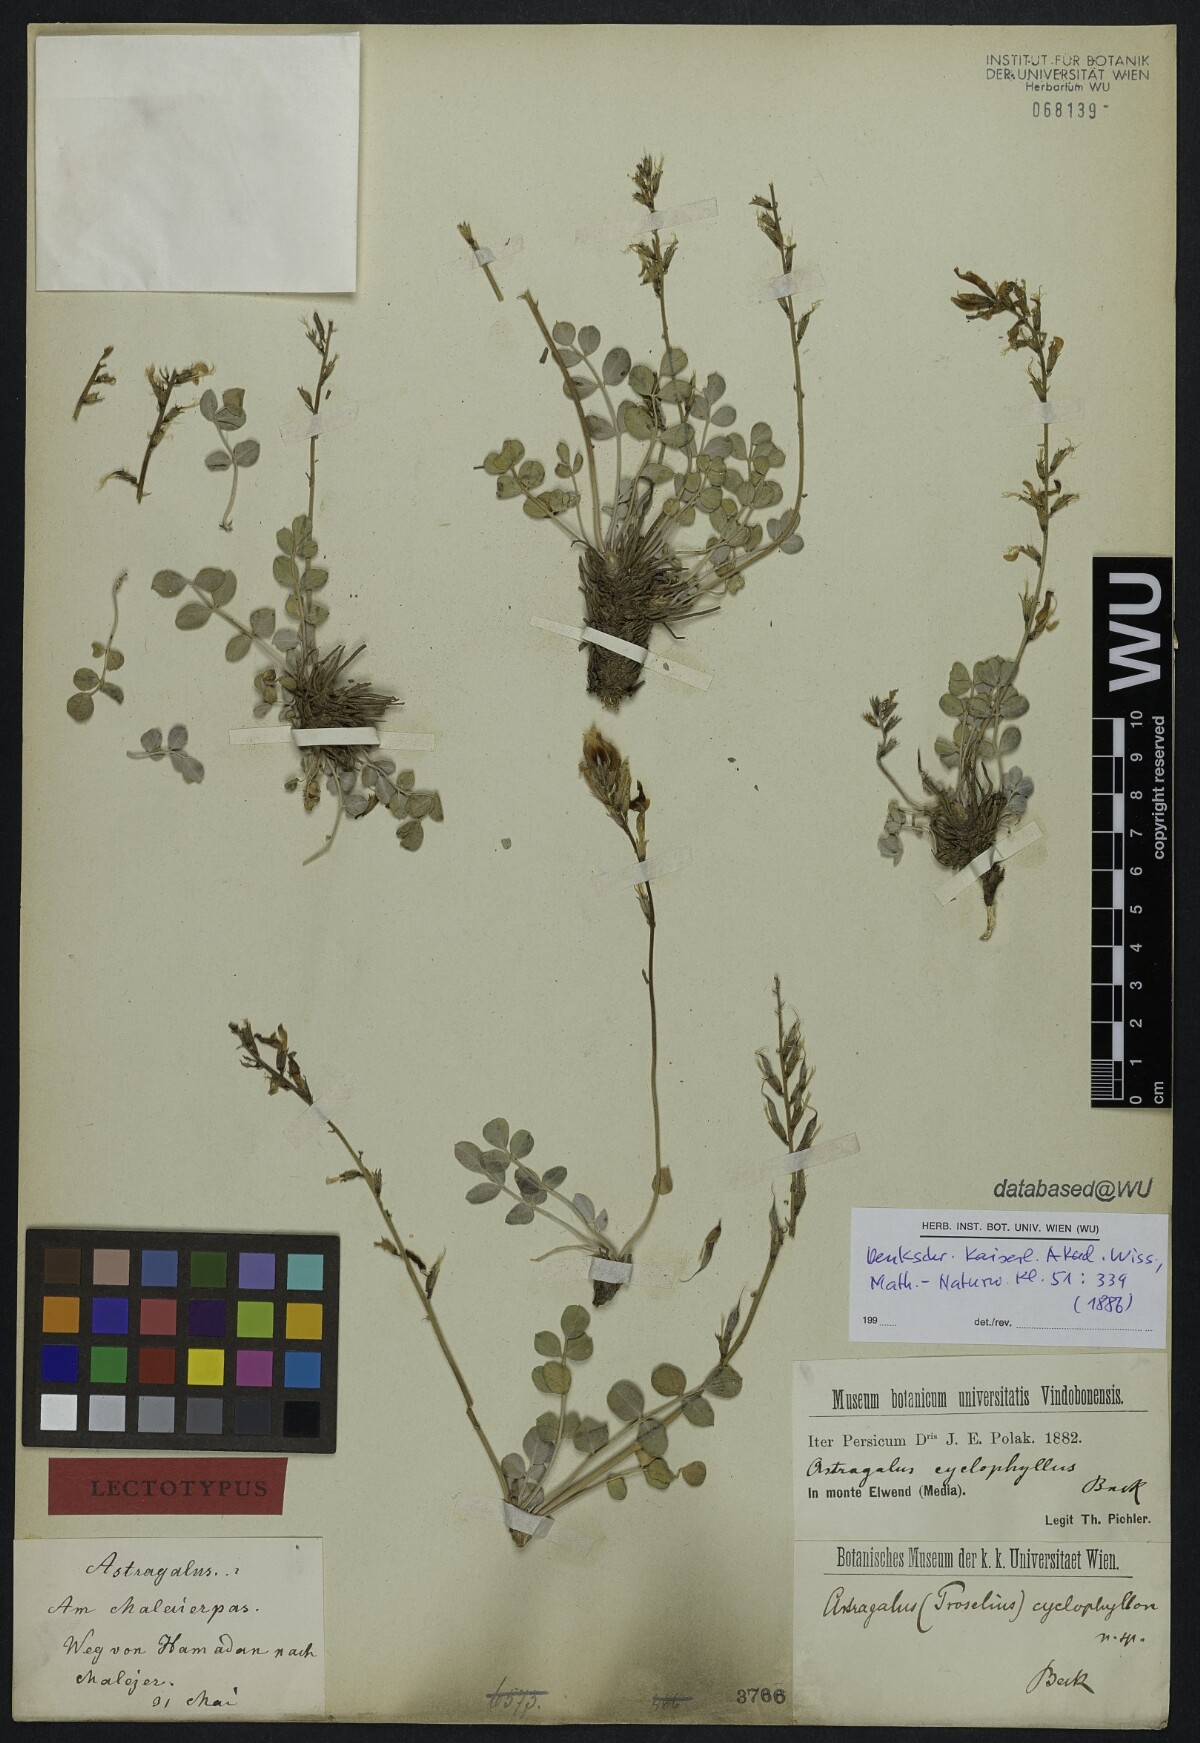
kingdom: Plantae
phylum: Tracheophyta
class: Magnoliopsida
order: Fabales
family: Fabaceae
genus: Astragalus
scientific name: Astragalus cyclophyllos
